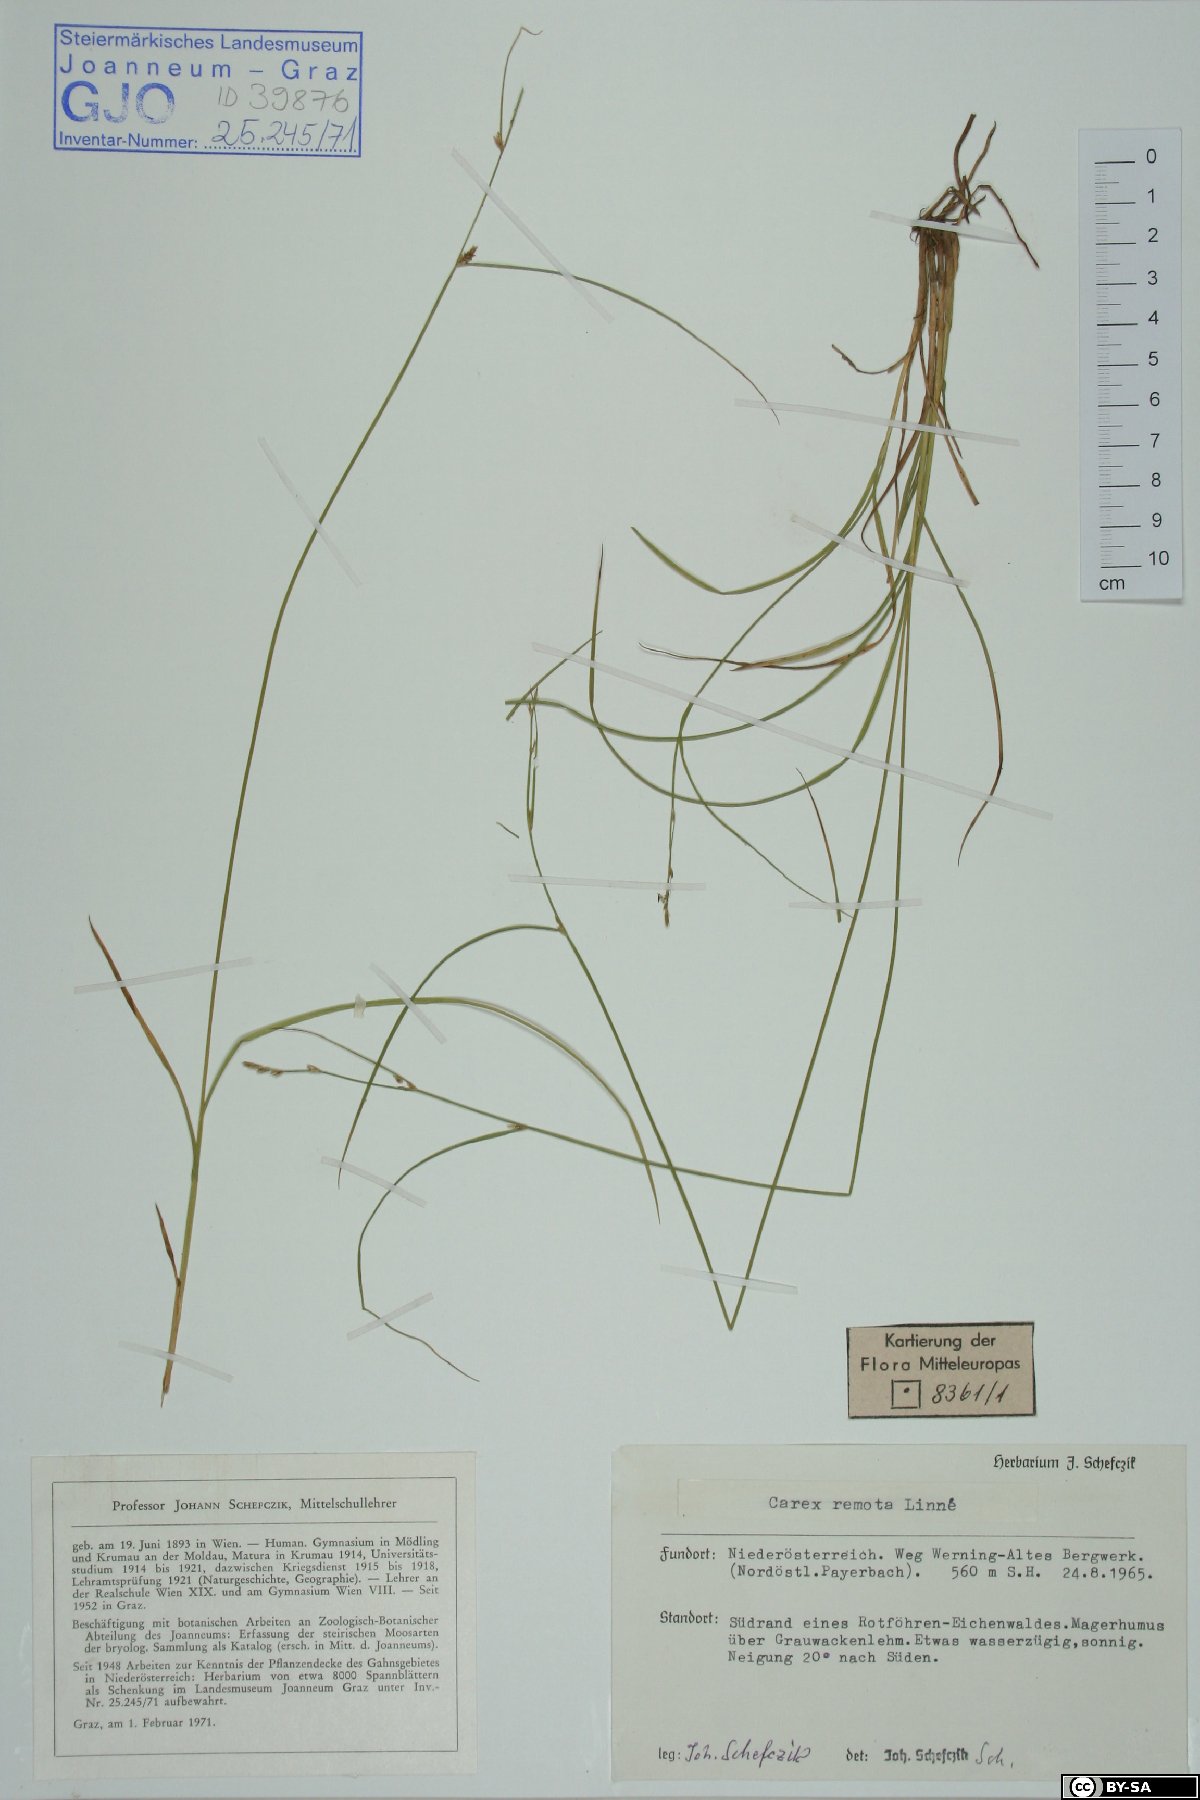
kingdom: Plantae
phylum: Tracheophyta
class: Liliopsida
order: Poales
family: Cyperaceae
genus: Carex
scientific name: Carex remota
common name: Remote sedge
